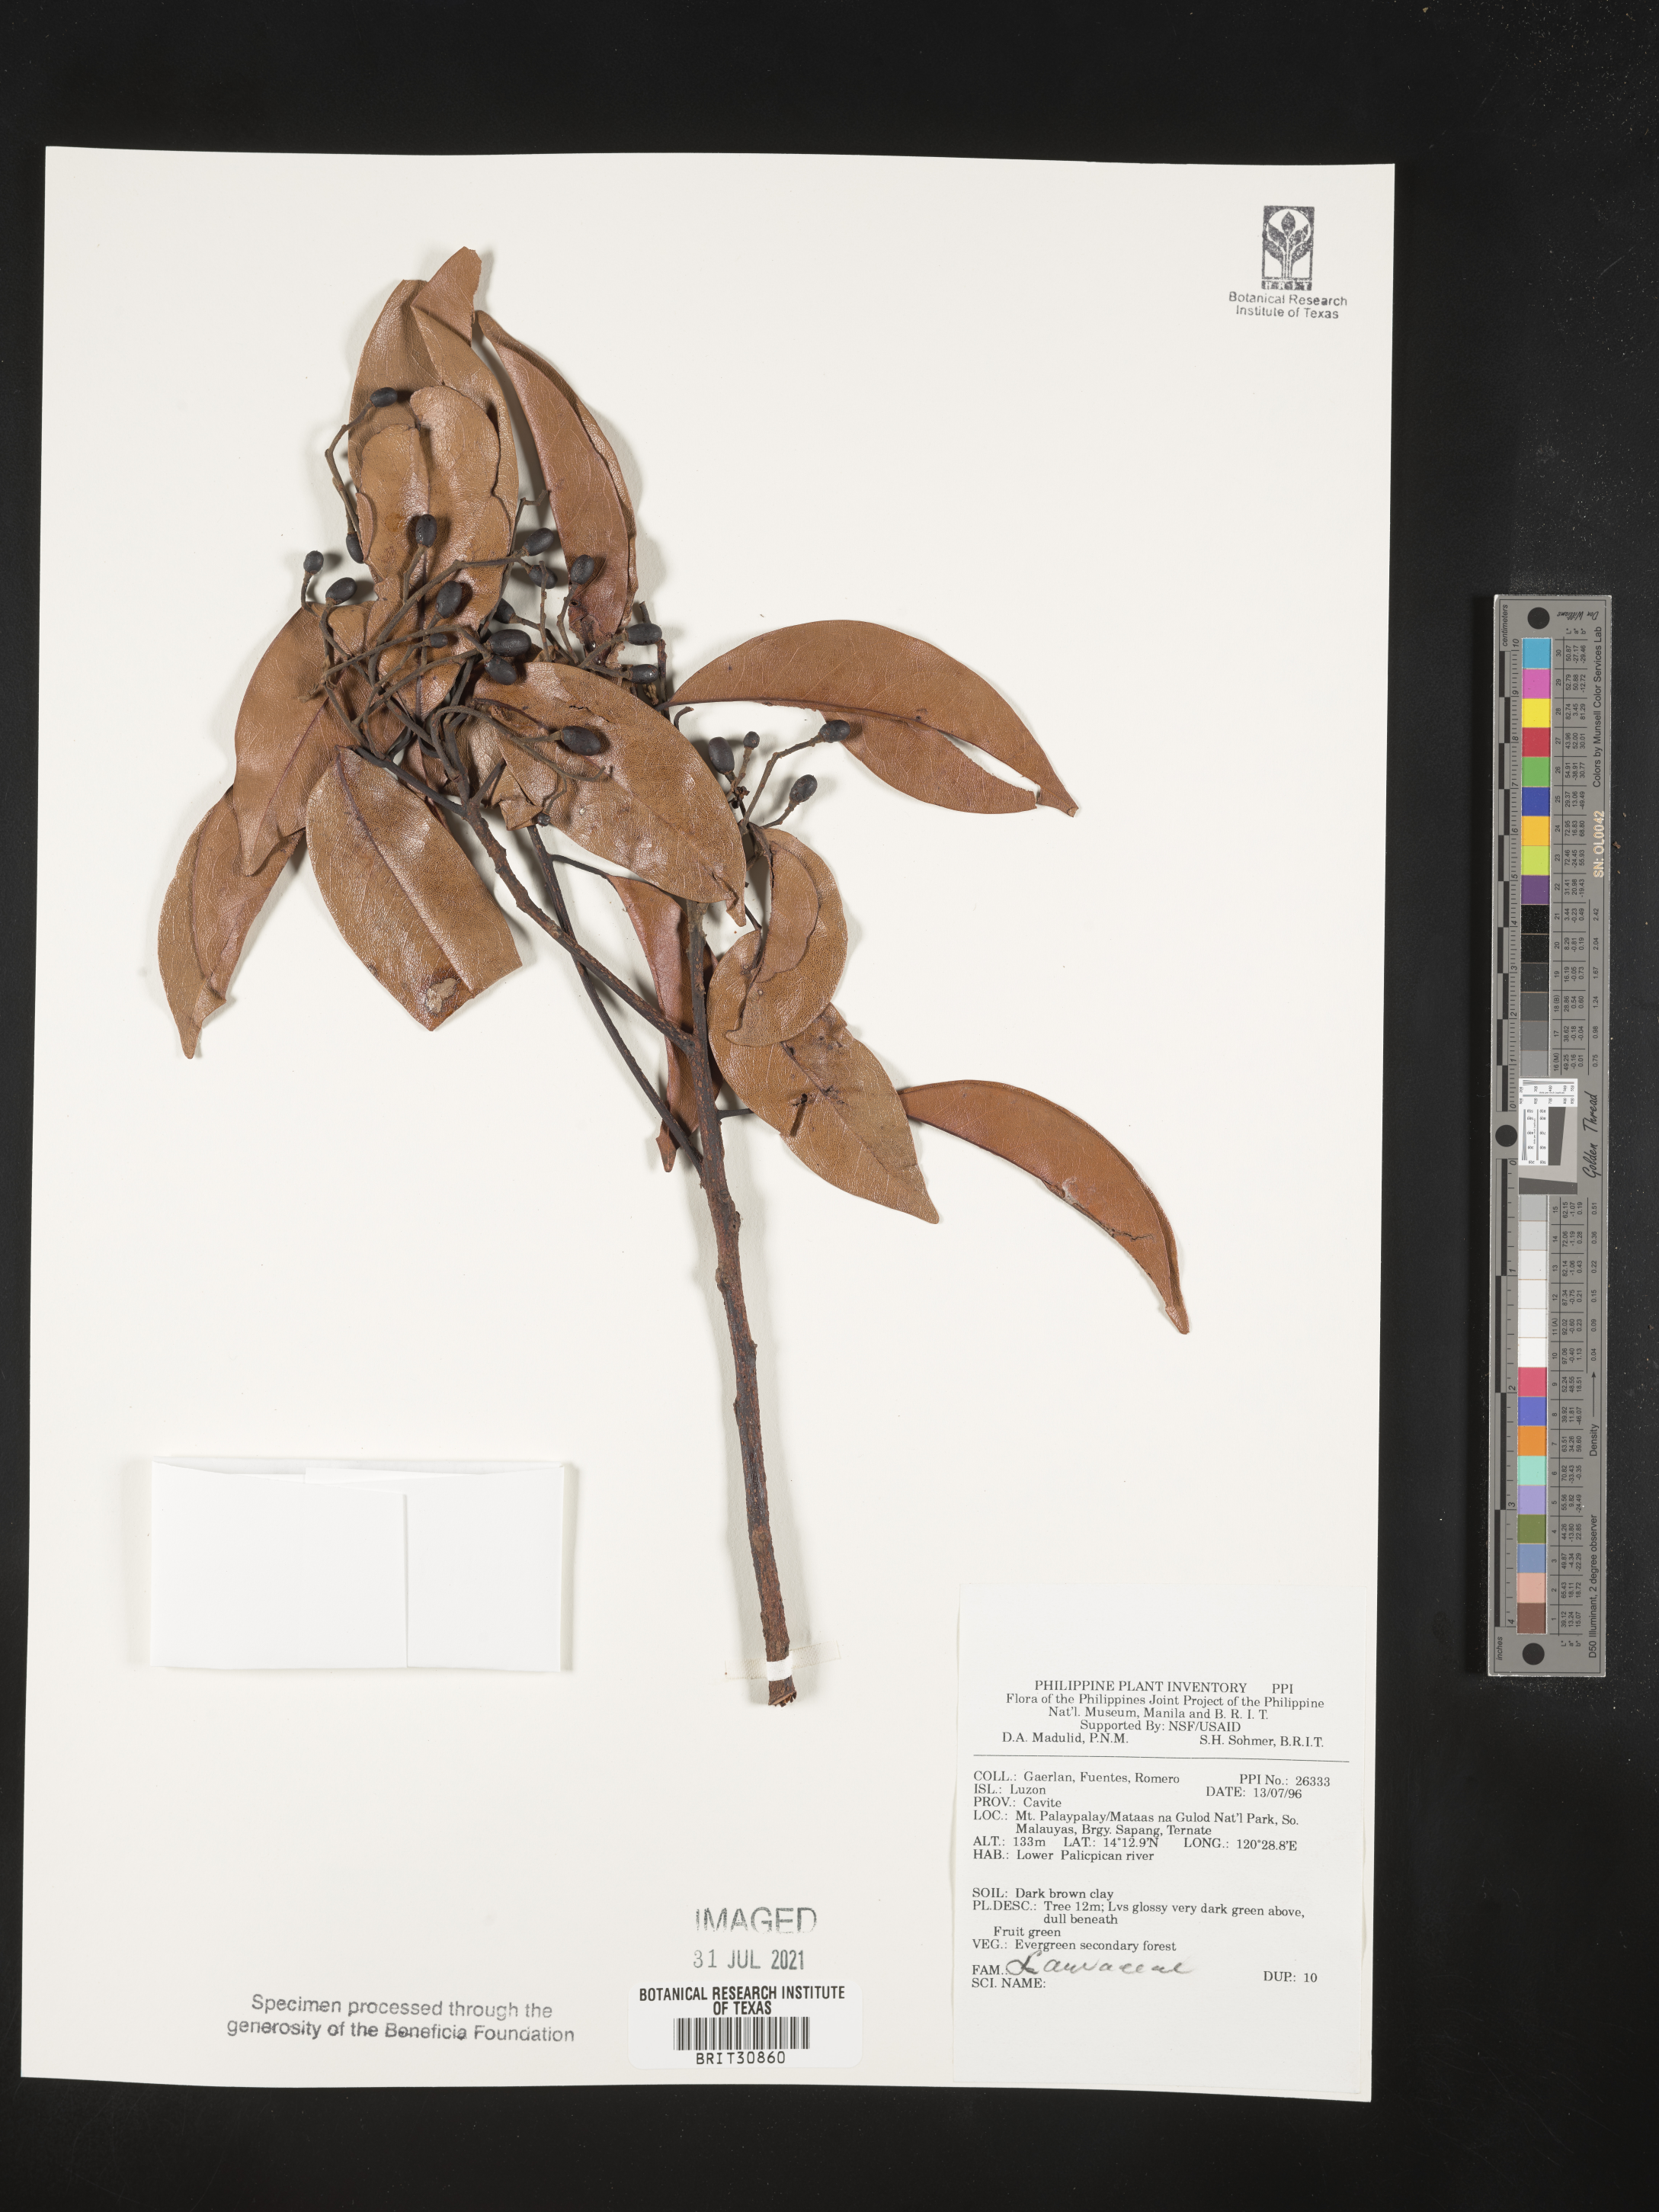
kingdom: Plantae
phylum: Tracheophyta
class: Magnoliopsida
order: Laurales
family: Lauraceae
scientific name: Lauraceae
